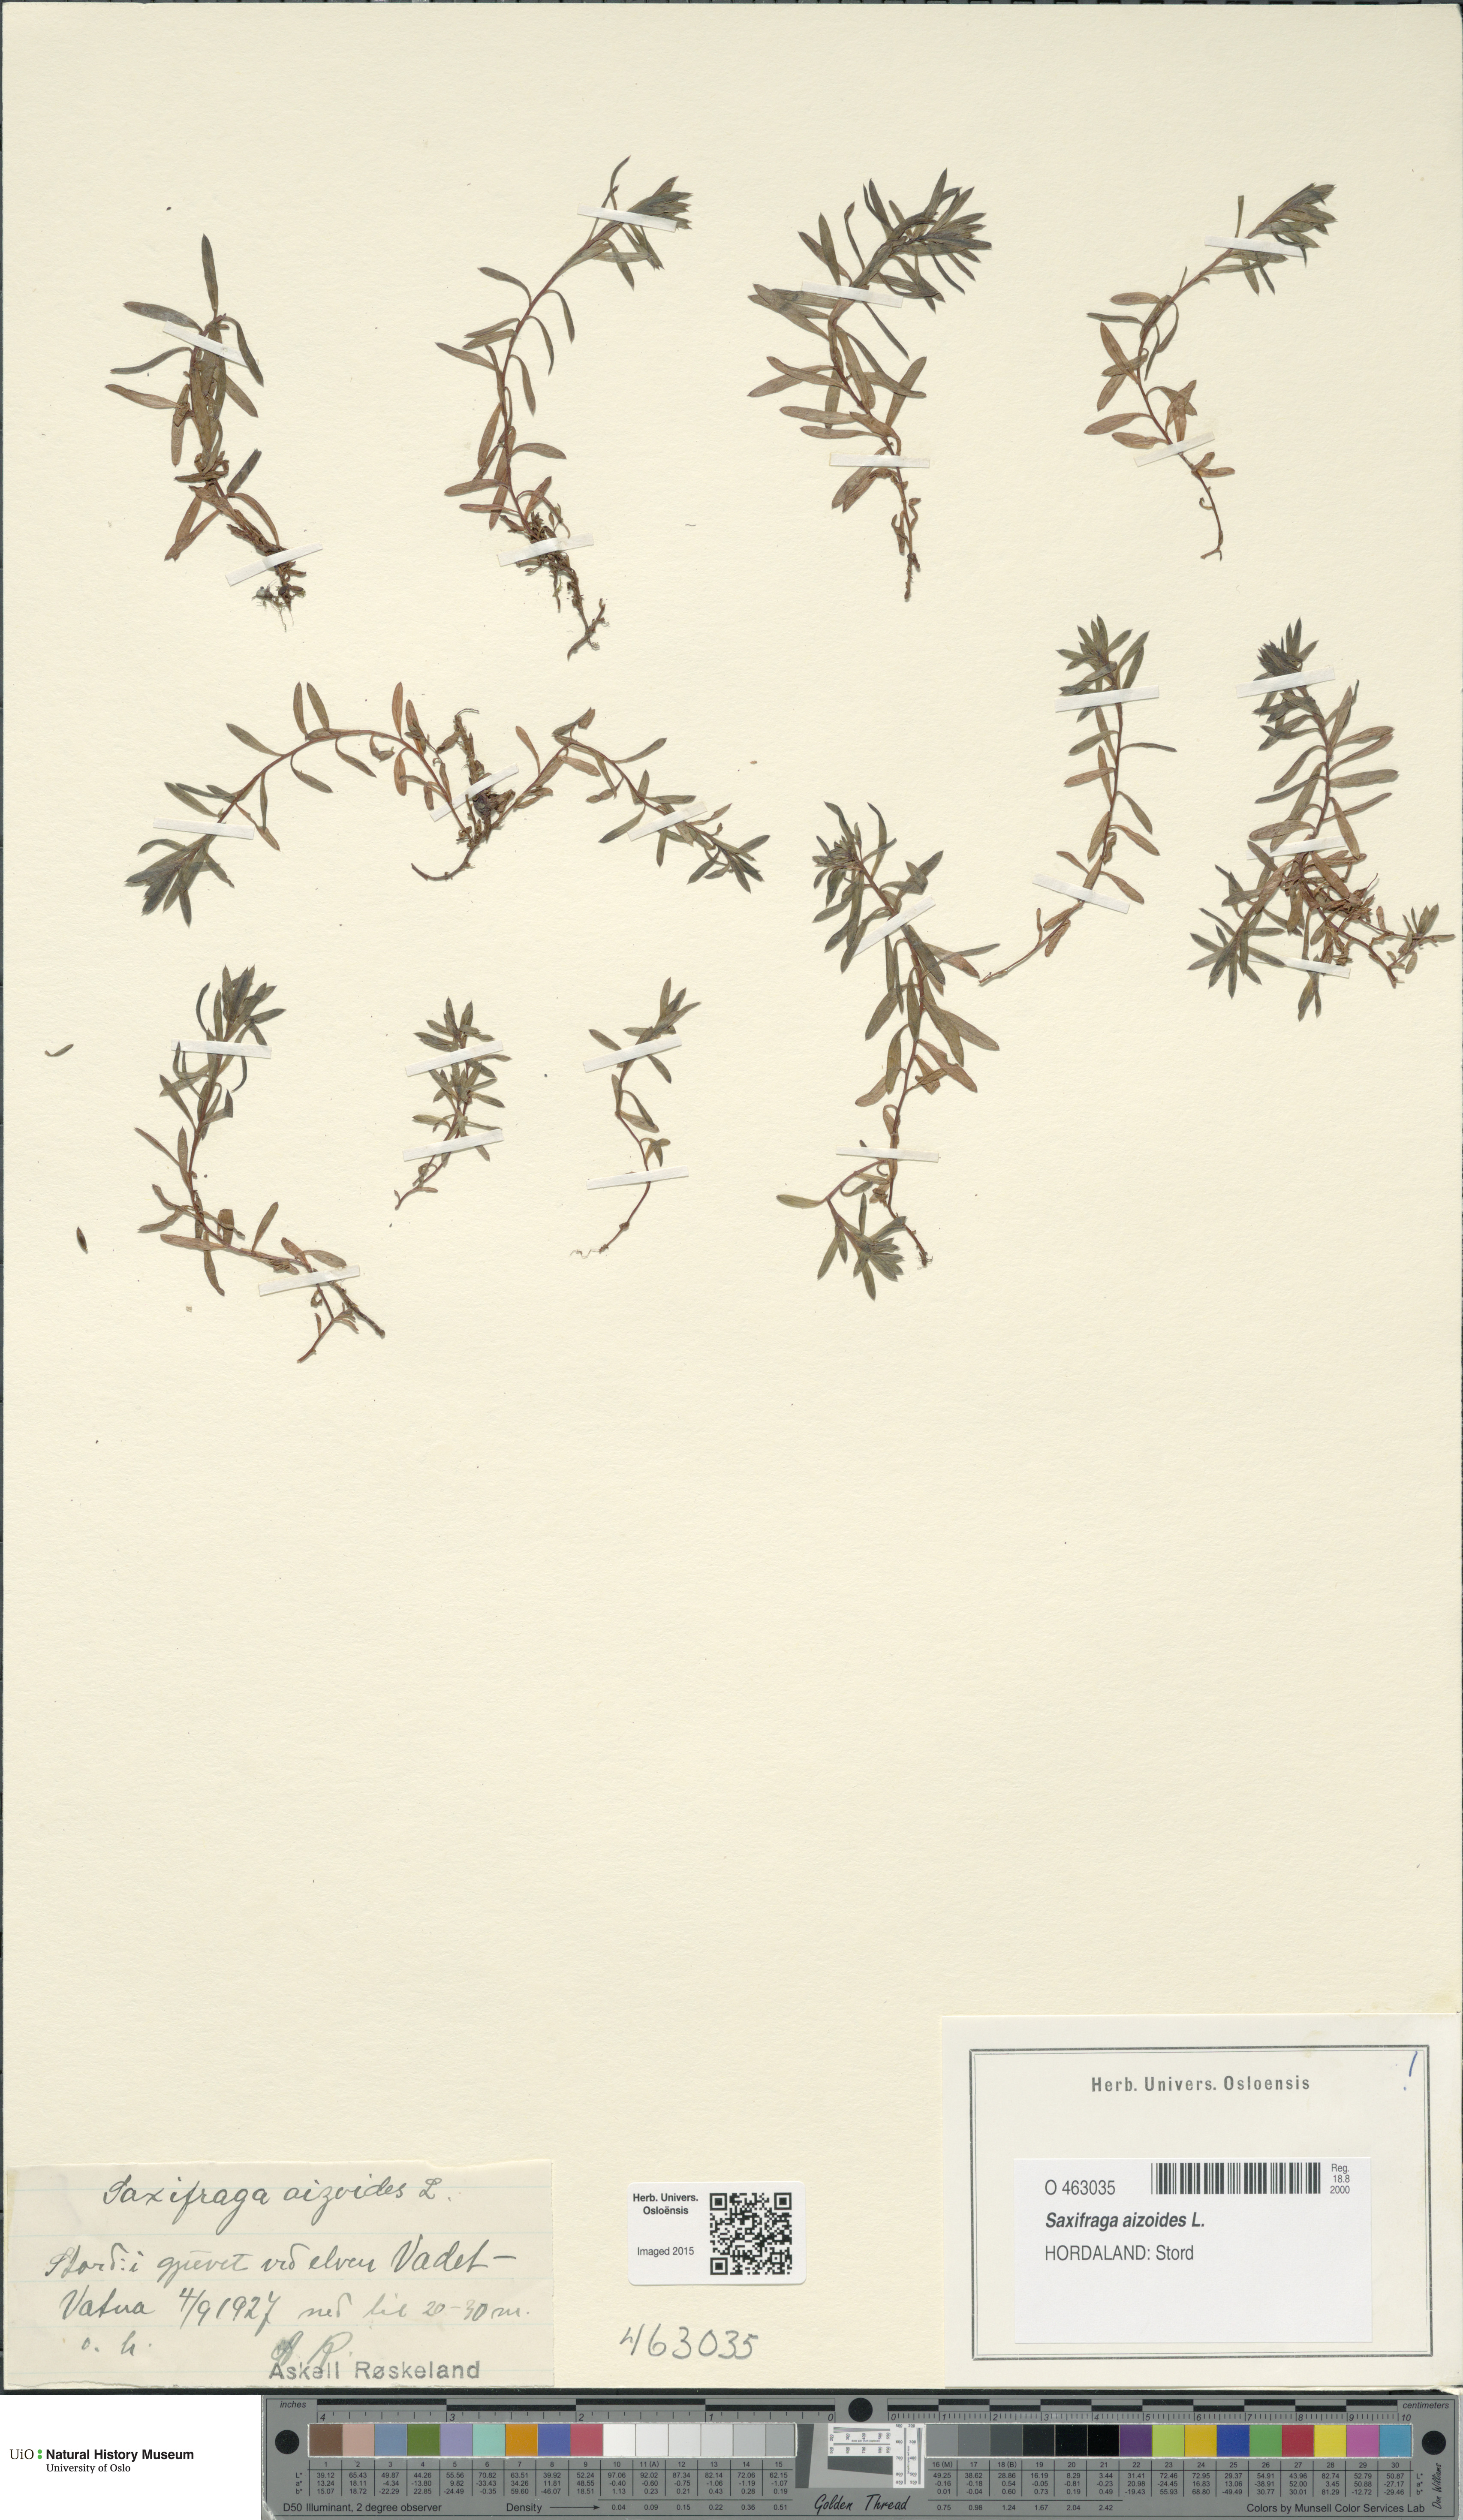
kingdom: Plantae
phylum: Tracheophyta
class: Magnoliopsida
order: Saxifragales
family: Saxifragaceae
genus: Saxifraga
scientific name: Saxifraga aizoides
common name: Yellow mountain saxifrage
